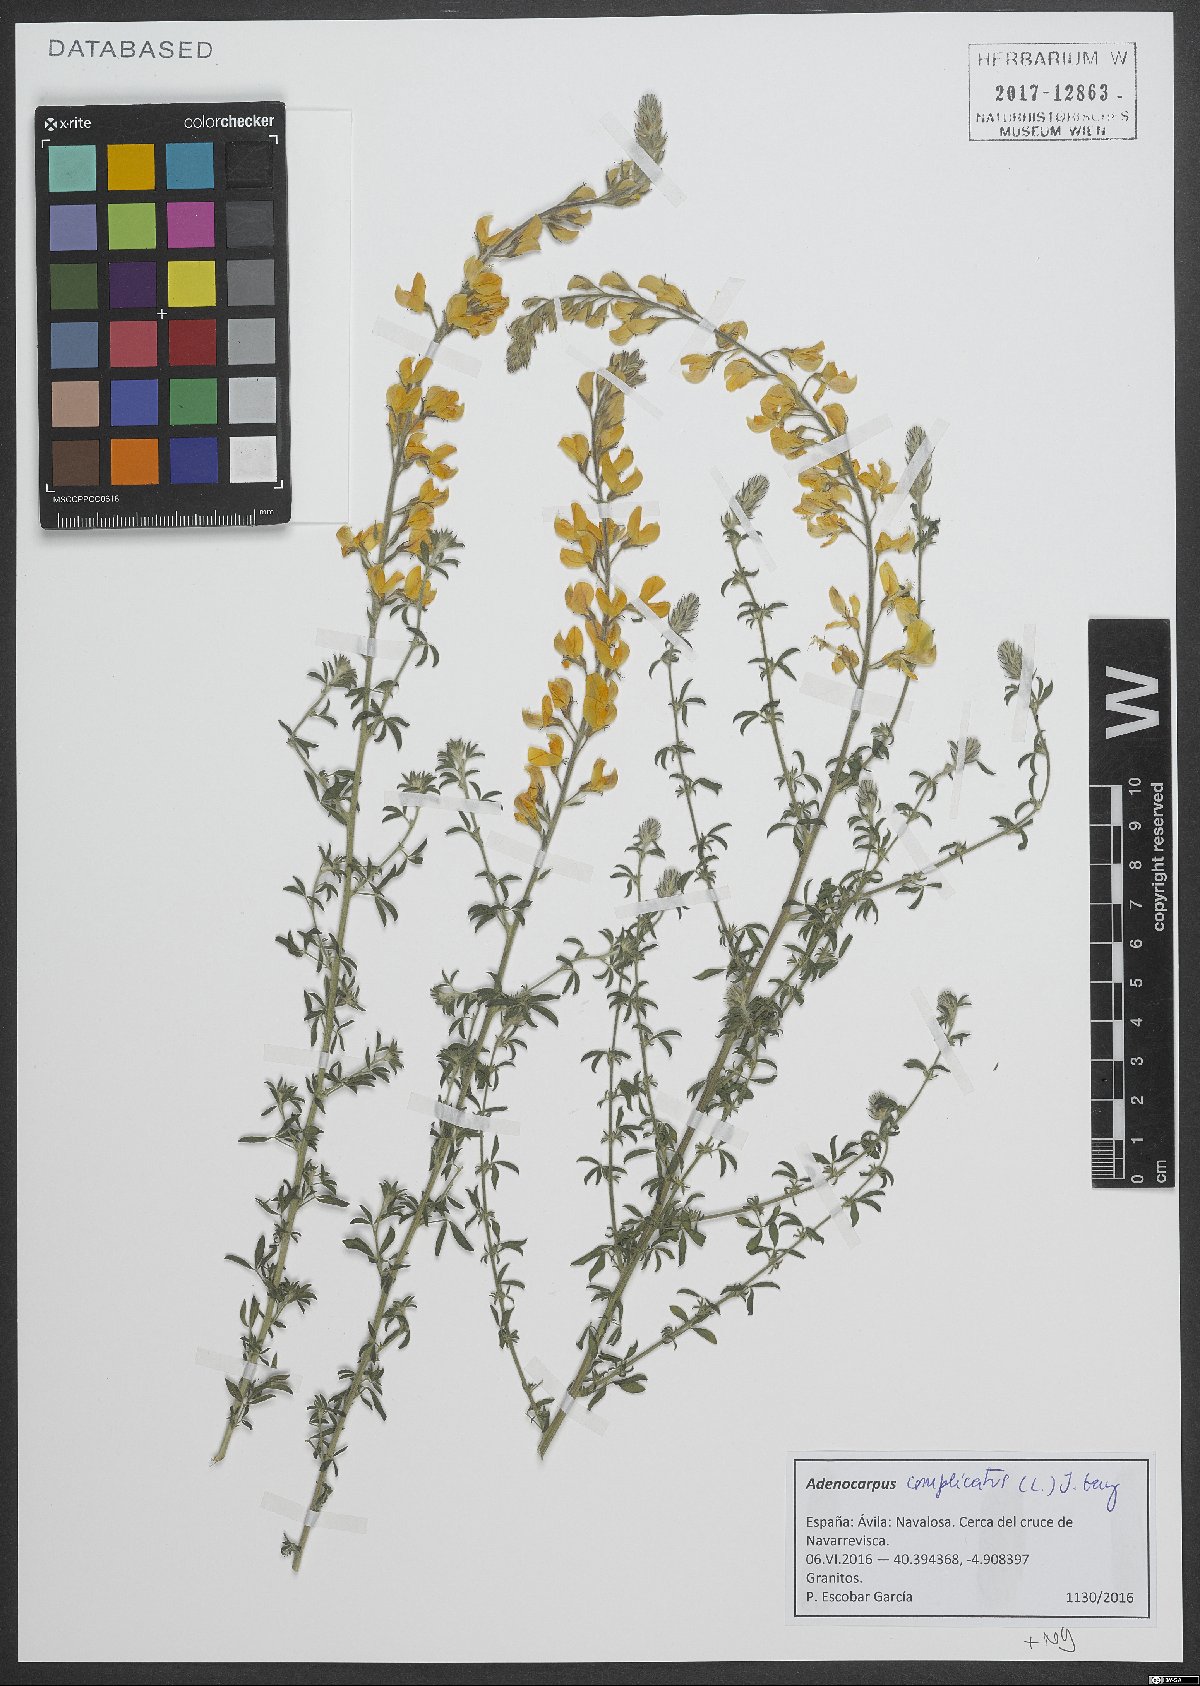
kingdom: Plantae
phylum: Tracheophyta
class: Magnoliopsida
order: Fabales
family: Fabaceae
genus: Adenocarpus
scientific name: Adenocarpus complicatus
